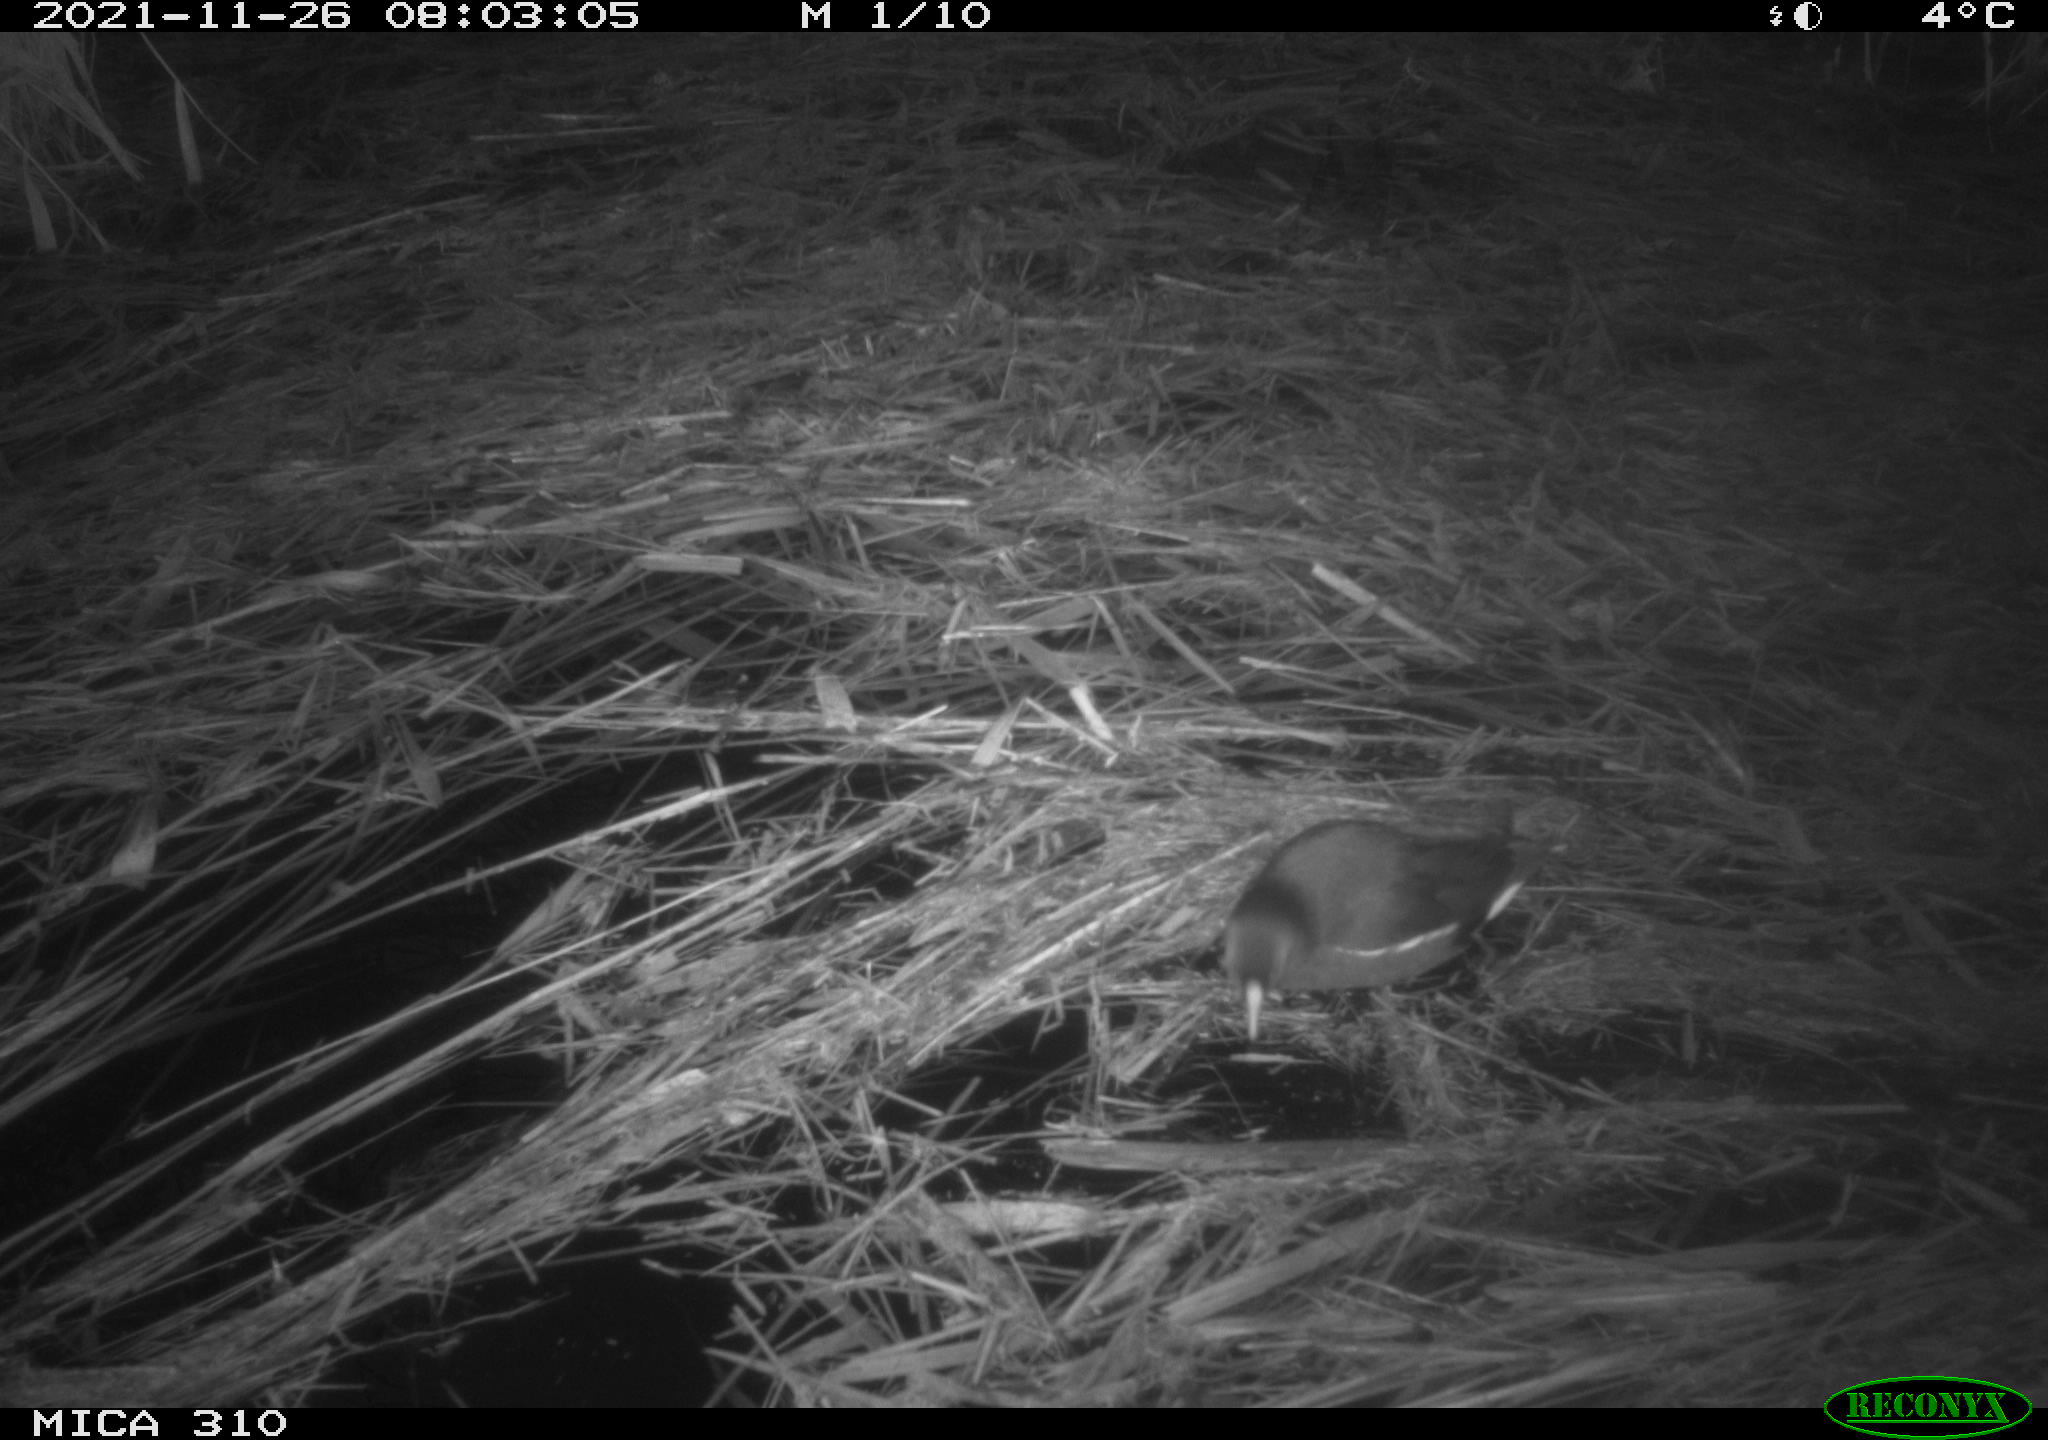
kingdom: Animalia
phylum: Chordata
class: Aves
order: Gruiformes
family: Rallidae
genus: Gallinula
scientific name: Gallinula chloropus
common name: Common moorhen
